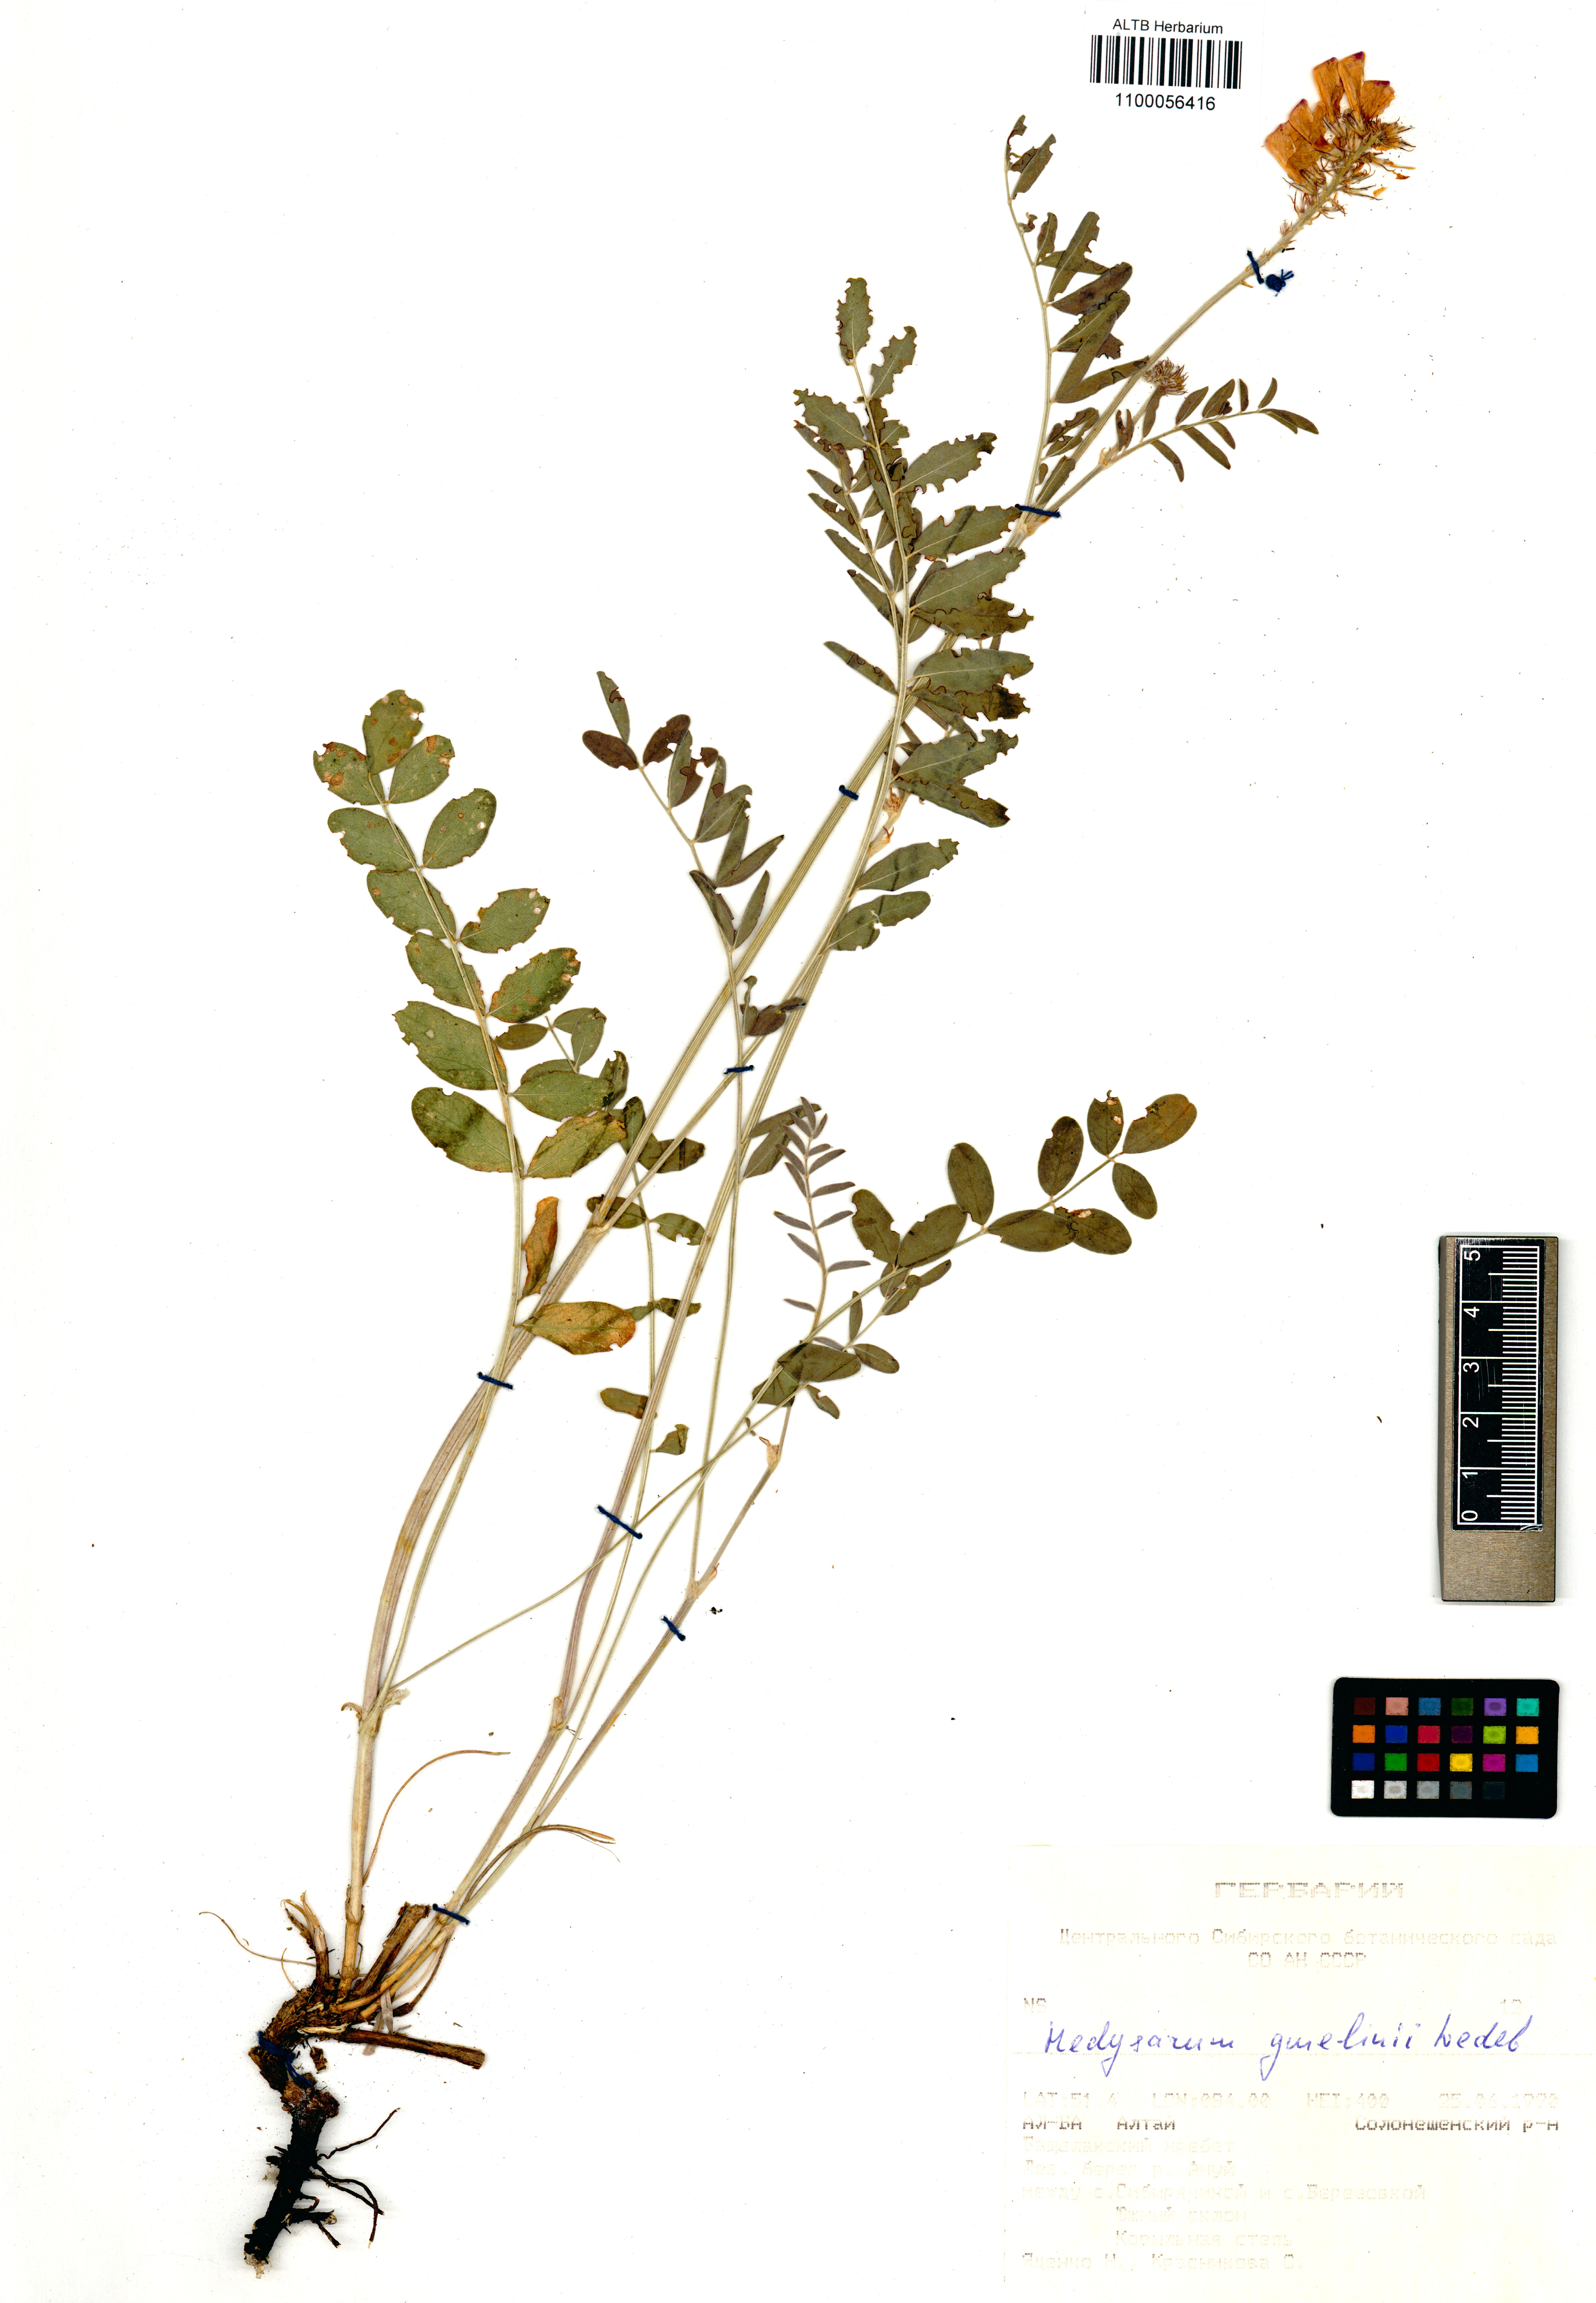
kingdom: Plantae
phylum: Tracheophyta
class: Magnoliopsida
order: Fabales
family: Fabaceae
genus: Hedysarum
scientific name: Hedysarum gmelinii
